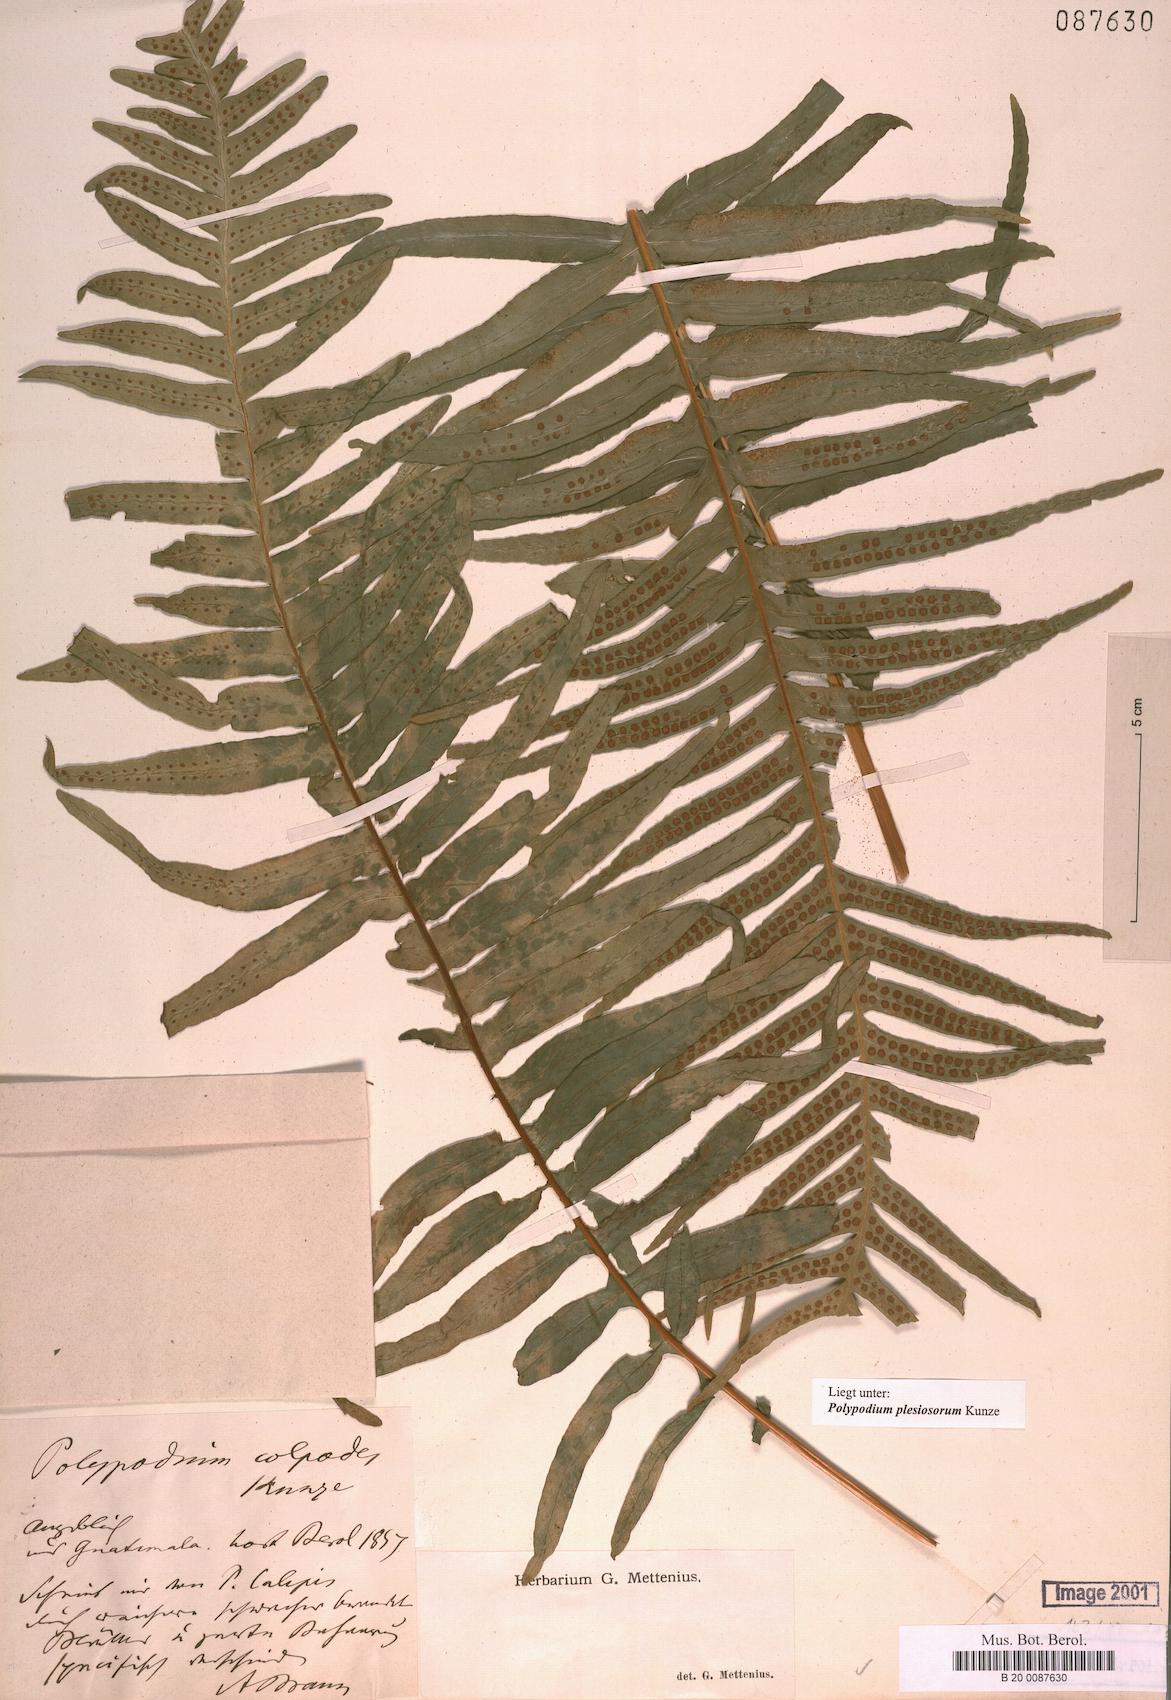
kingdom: Plantae
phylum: Tracheophyta
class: Polypodiopsida
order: Polypodiales
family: Polypodiaceae
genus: Polypodium
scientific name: Polypodium colpodes
